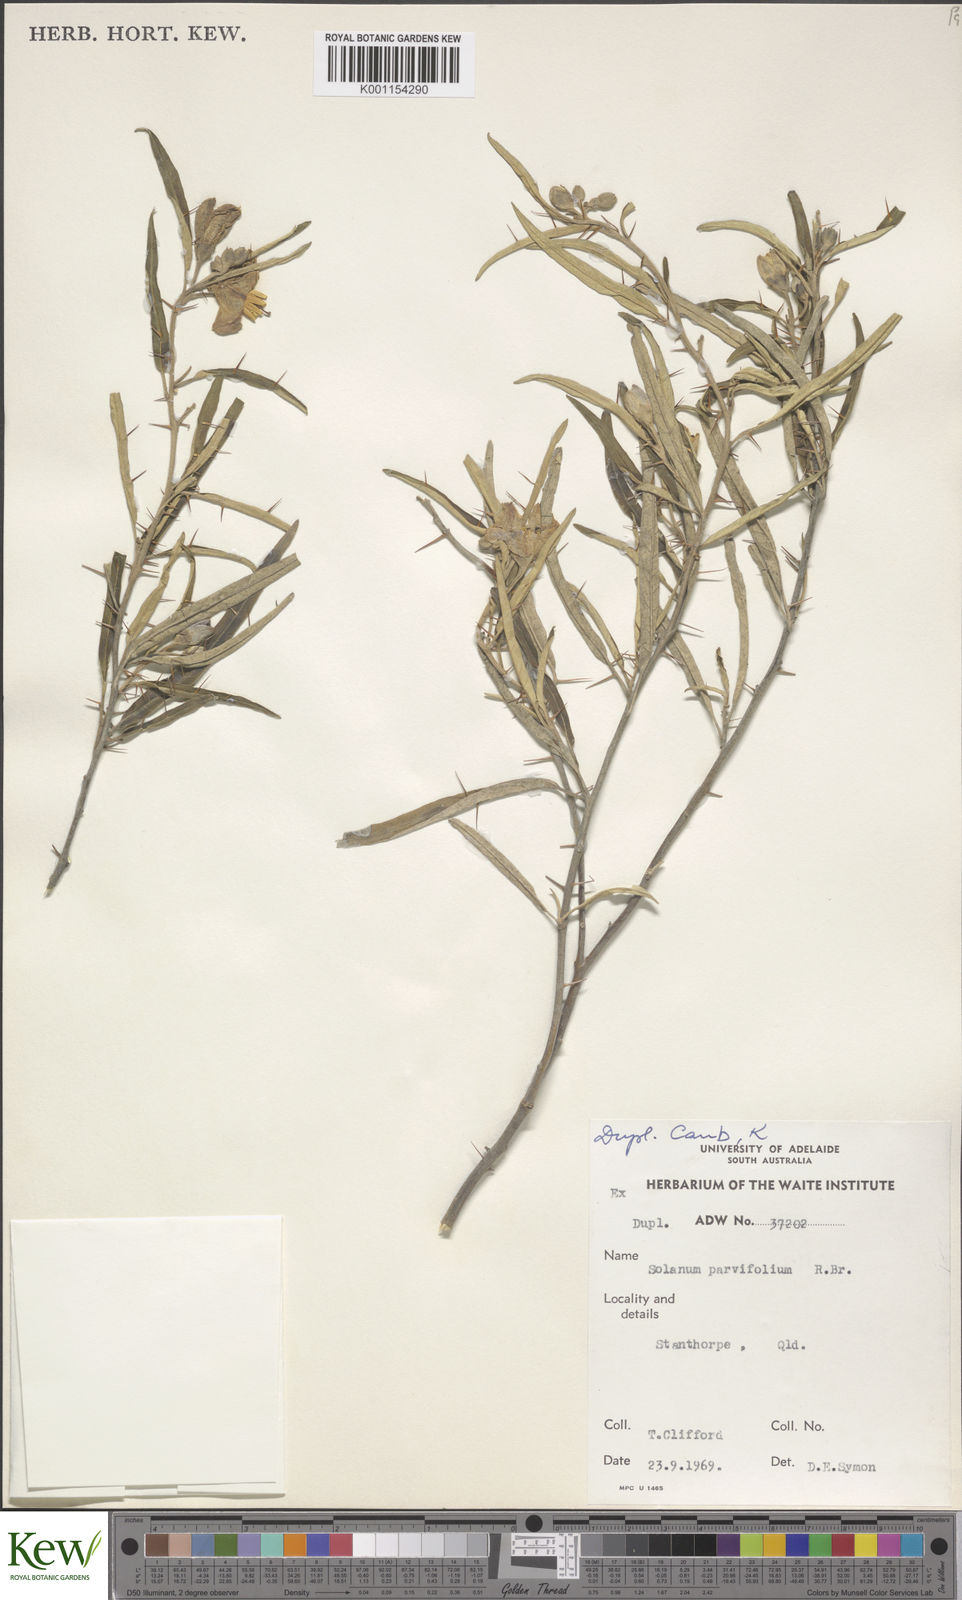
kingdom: Plantae
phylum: Tracheophyta
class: Magnoliopsida
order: Solanales
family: Solanaceae
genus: Solanum
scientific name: Solanum parvifolium
